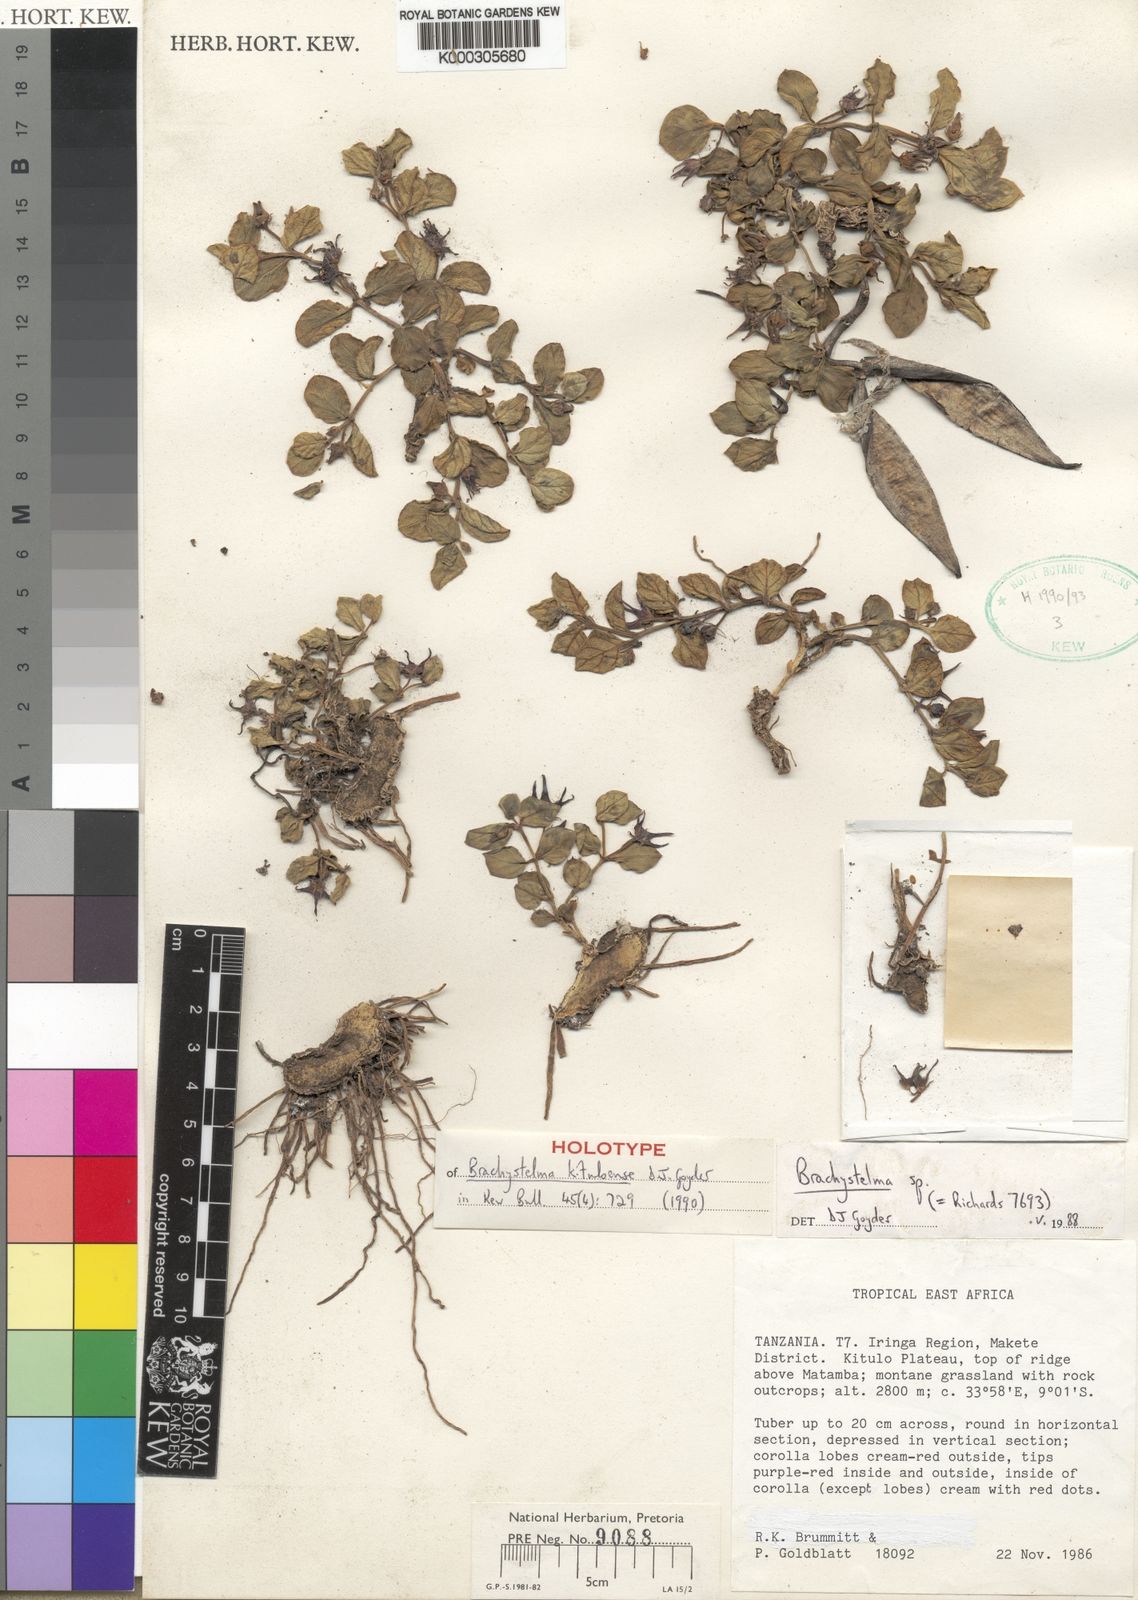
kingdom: Plantae
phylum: Tracheophyta
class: Magnoliopsida
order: Gentianales
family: Apocynaceae
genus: Ceropegia
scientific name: Ceropegia kituloana
